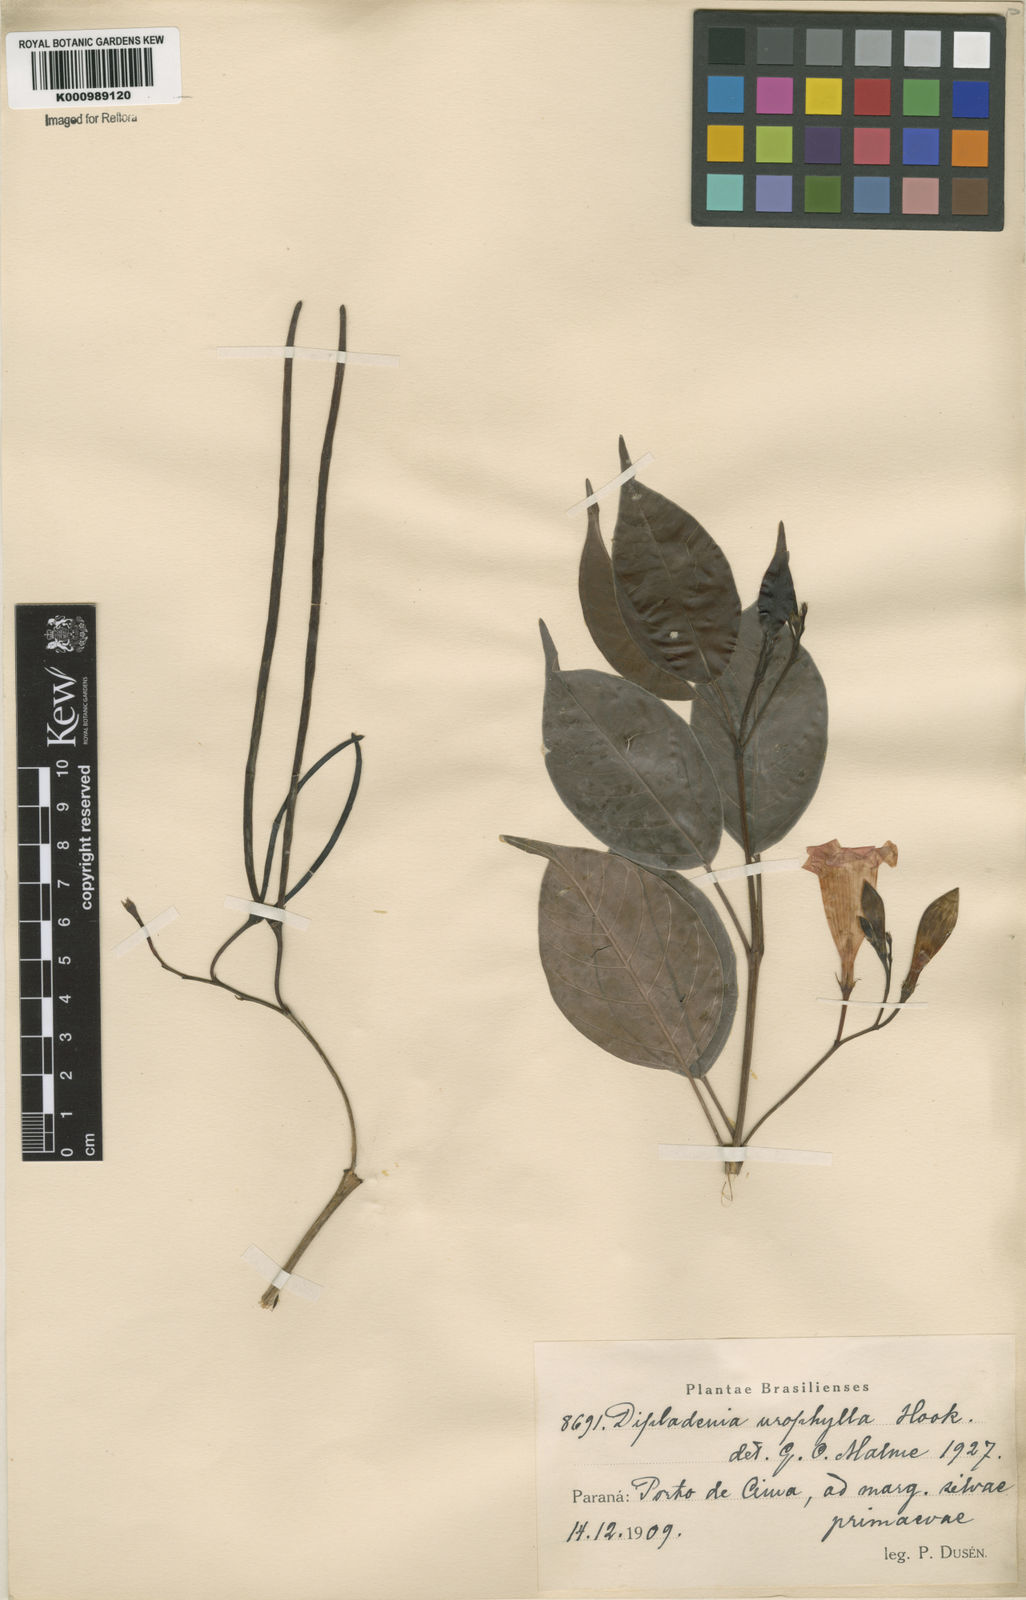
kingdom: Plantae
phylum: Tracheophyta
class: Magnoliopsida
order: Gentianales
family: Apocynaceae
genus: Mandevilla
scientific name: Mandevilla urophylla
